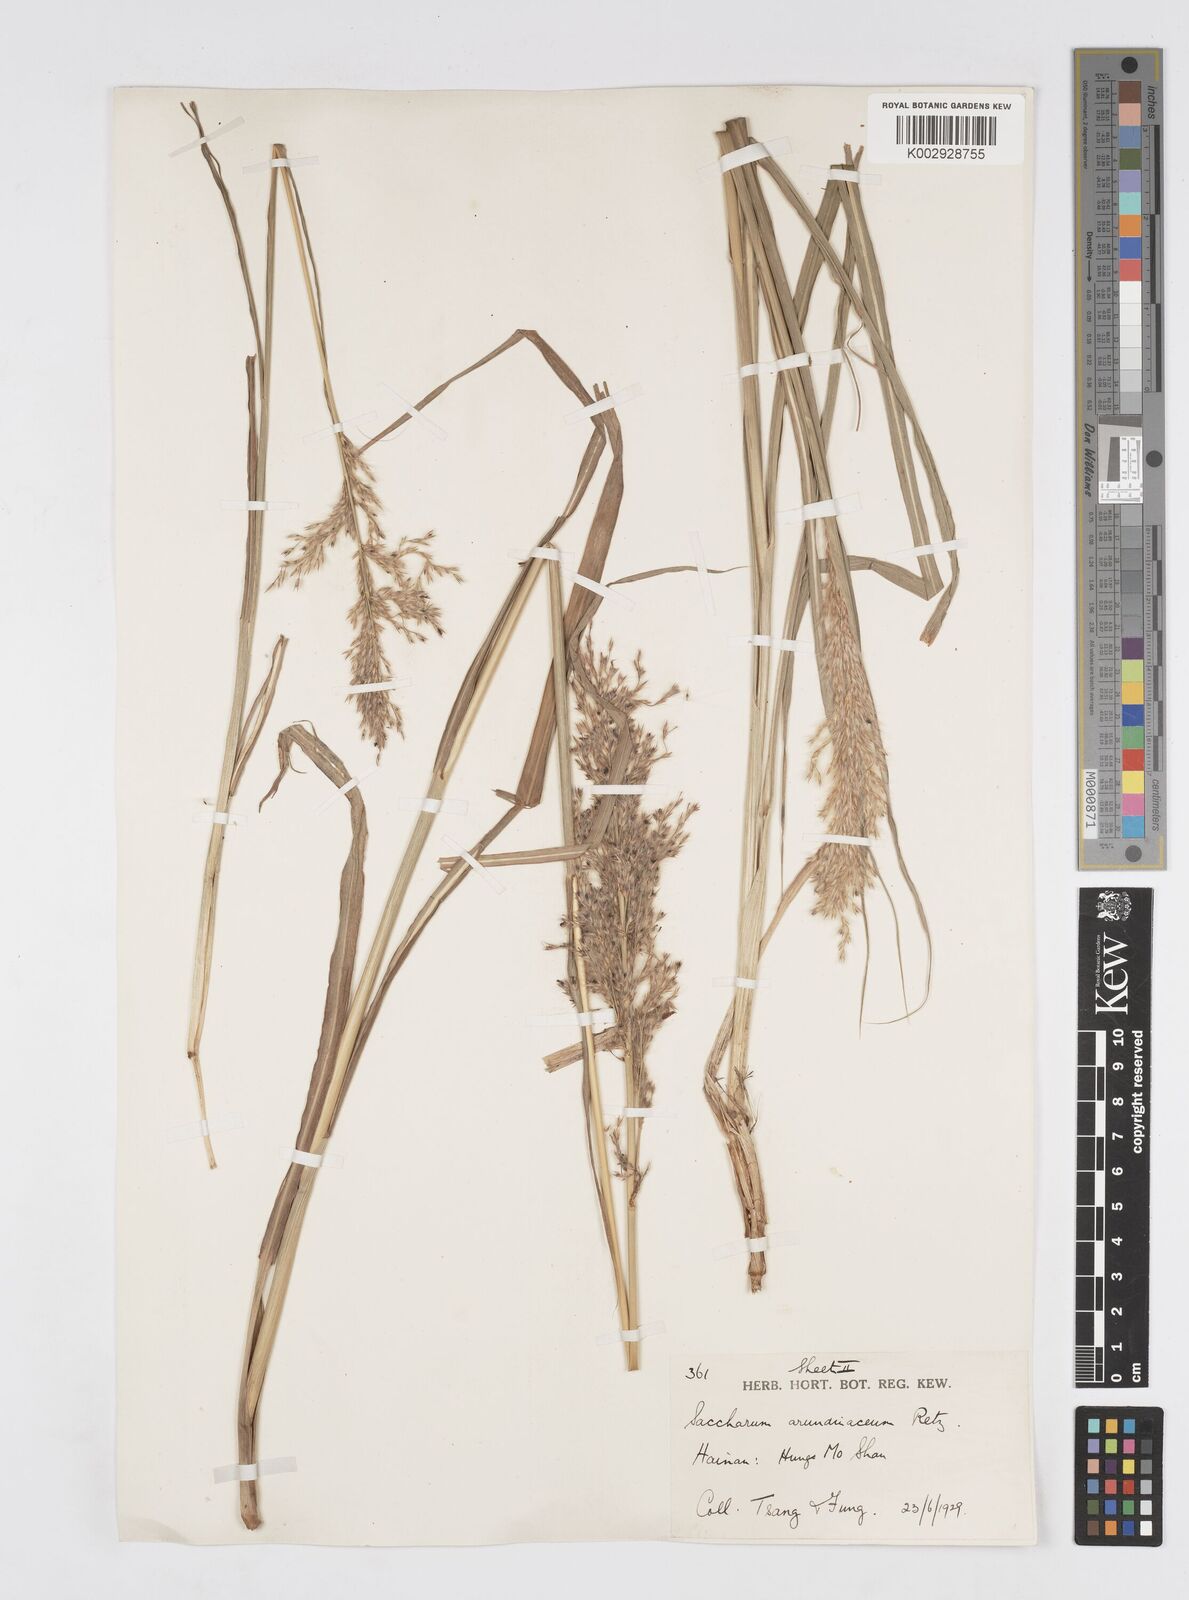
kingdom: Plantae
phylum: Tracheophyta
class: Liliopsida
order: Poales
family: Poaceae
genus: Tripidium
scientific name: Tripidium arundinaceum
